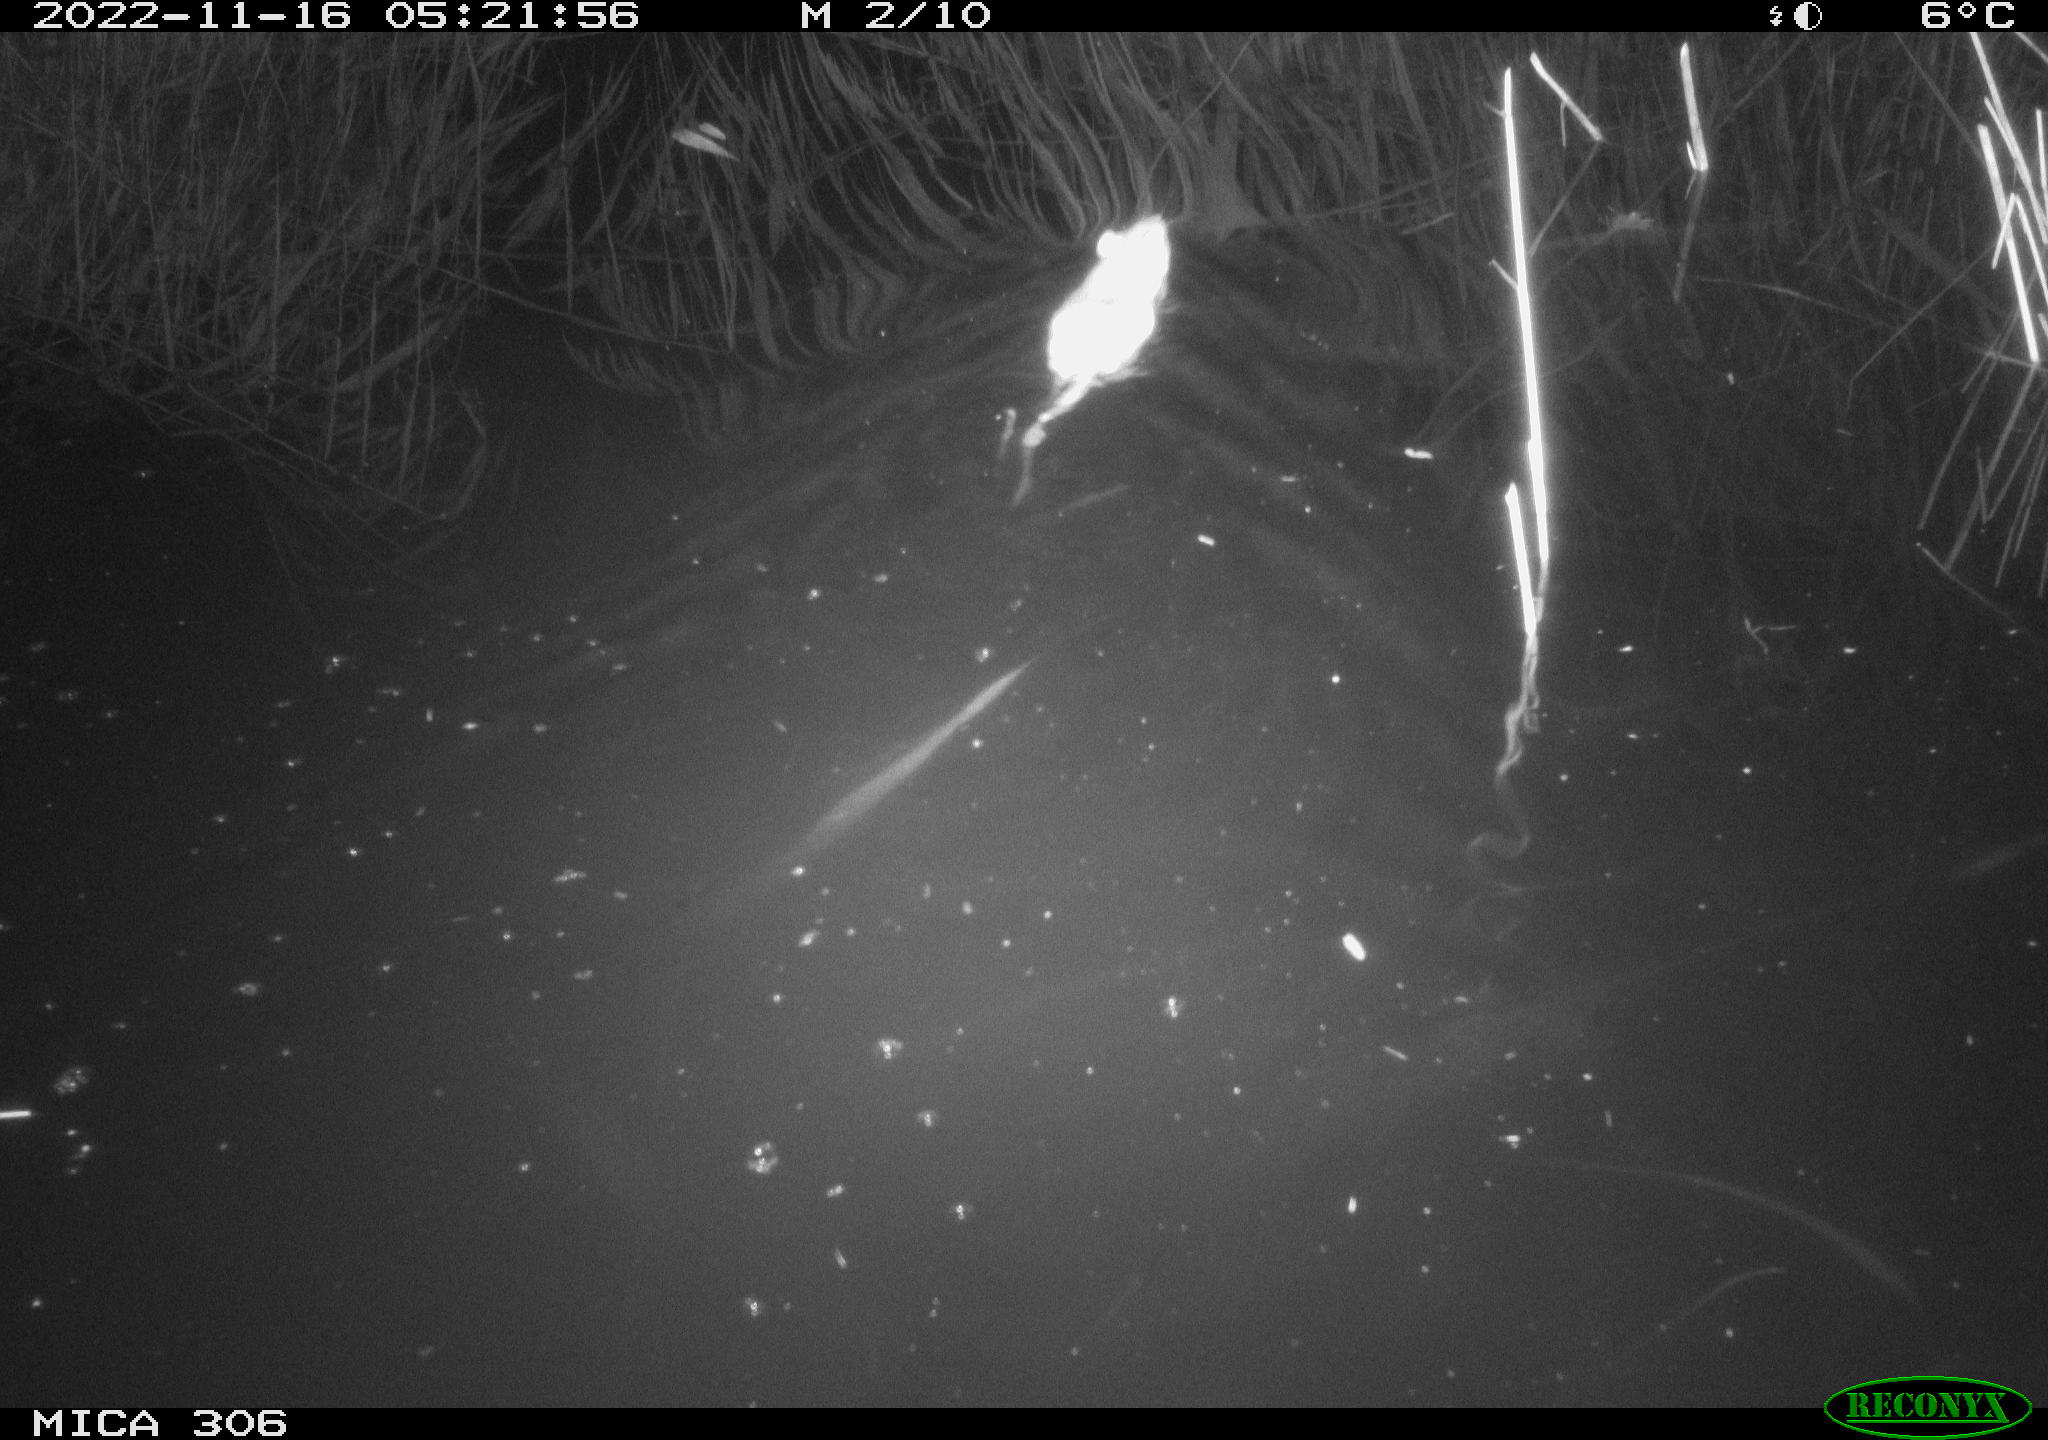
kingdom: Animalia
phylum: Chordata
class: Mammalia
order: Rodentia
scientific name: Rodentia
